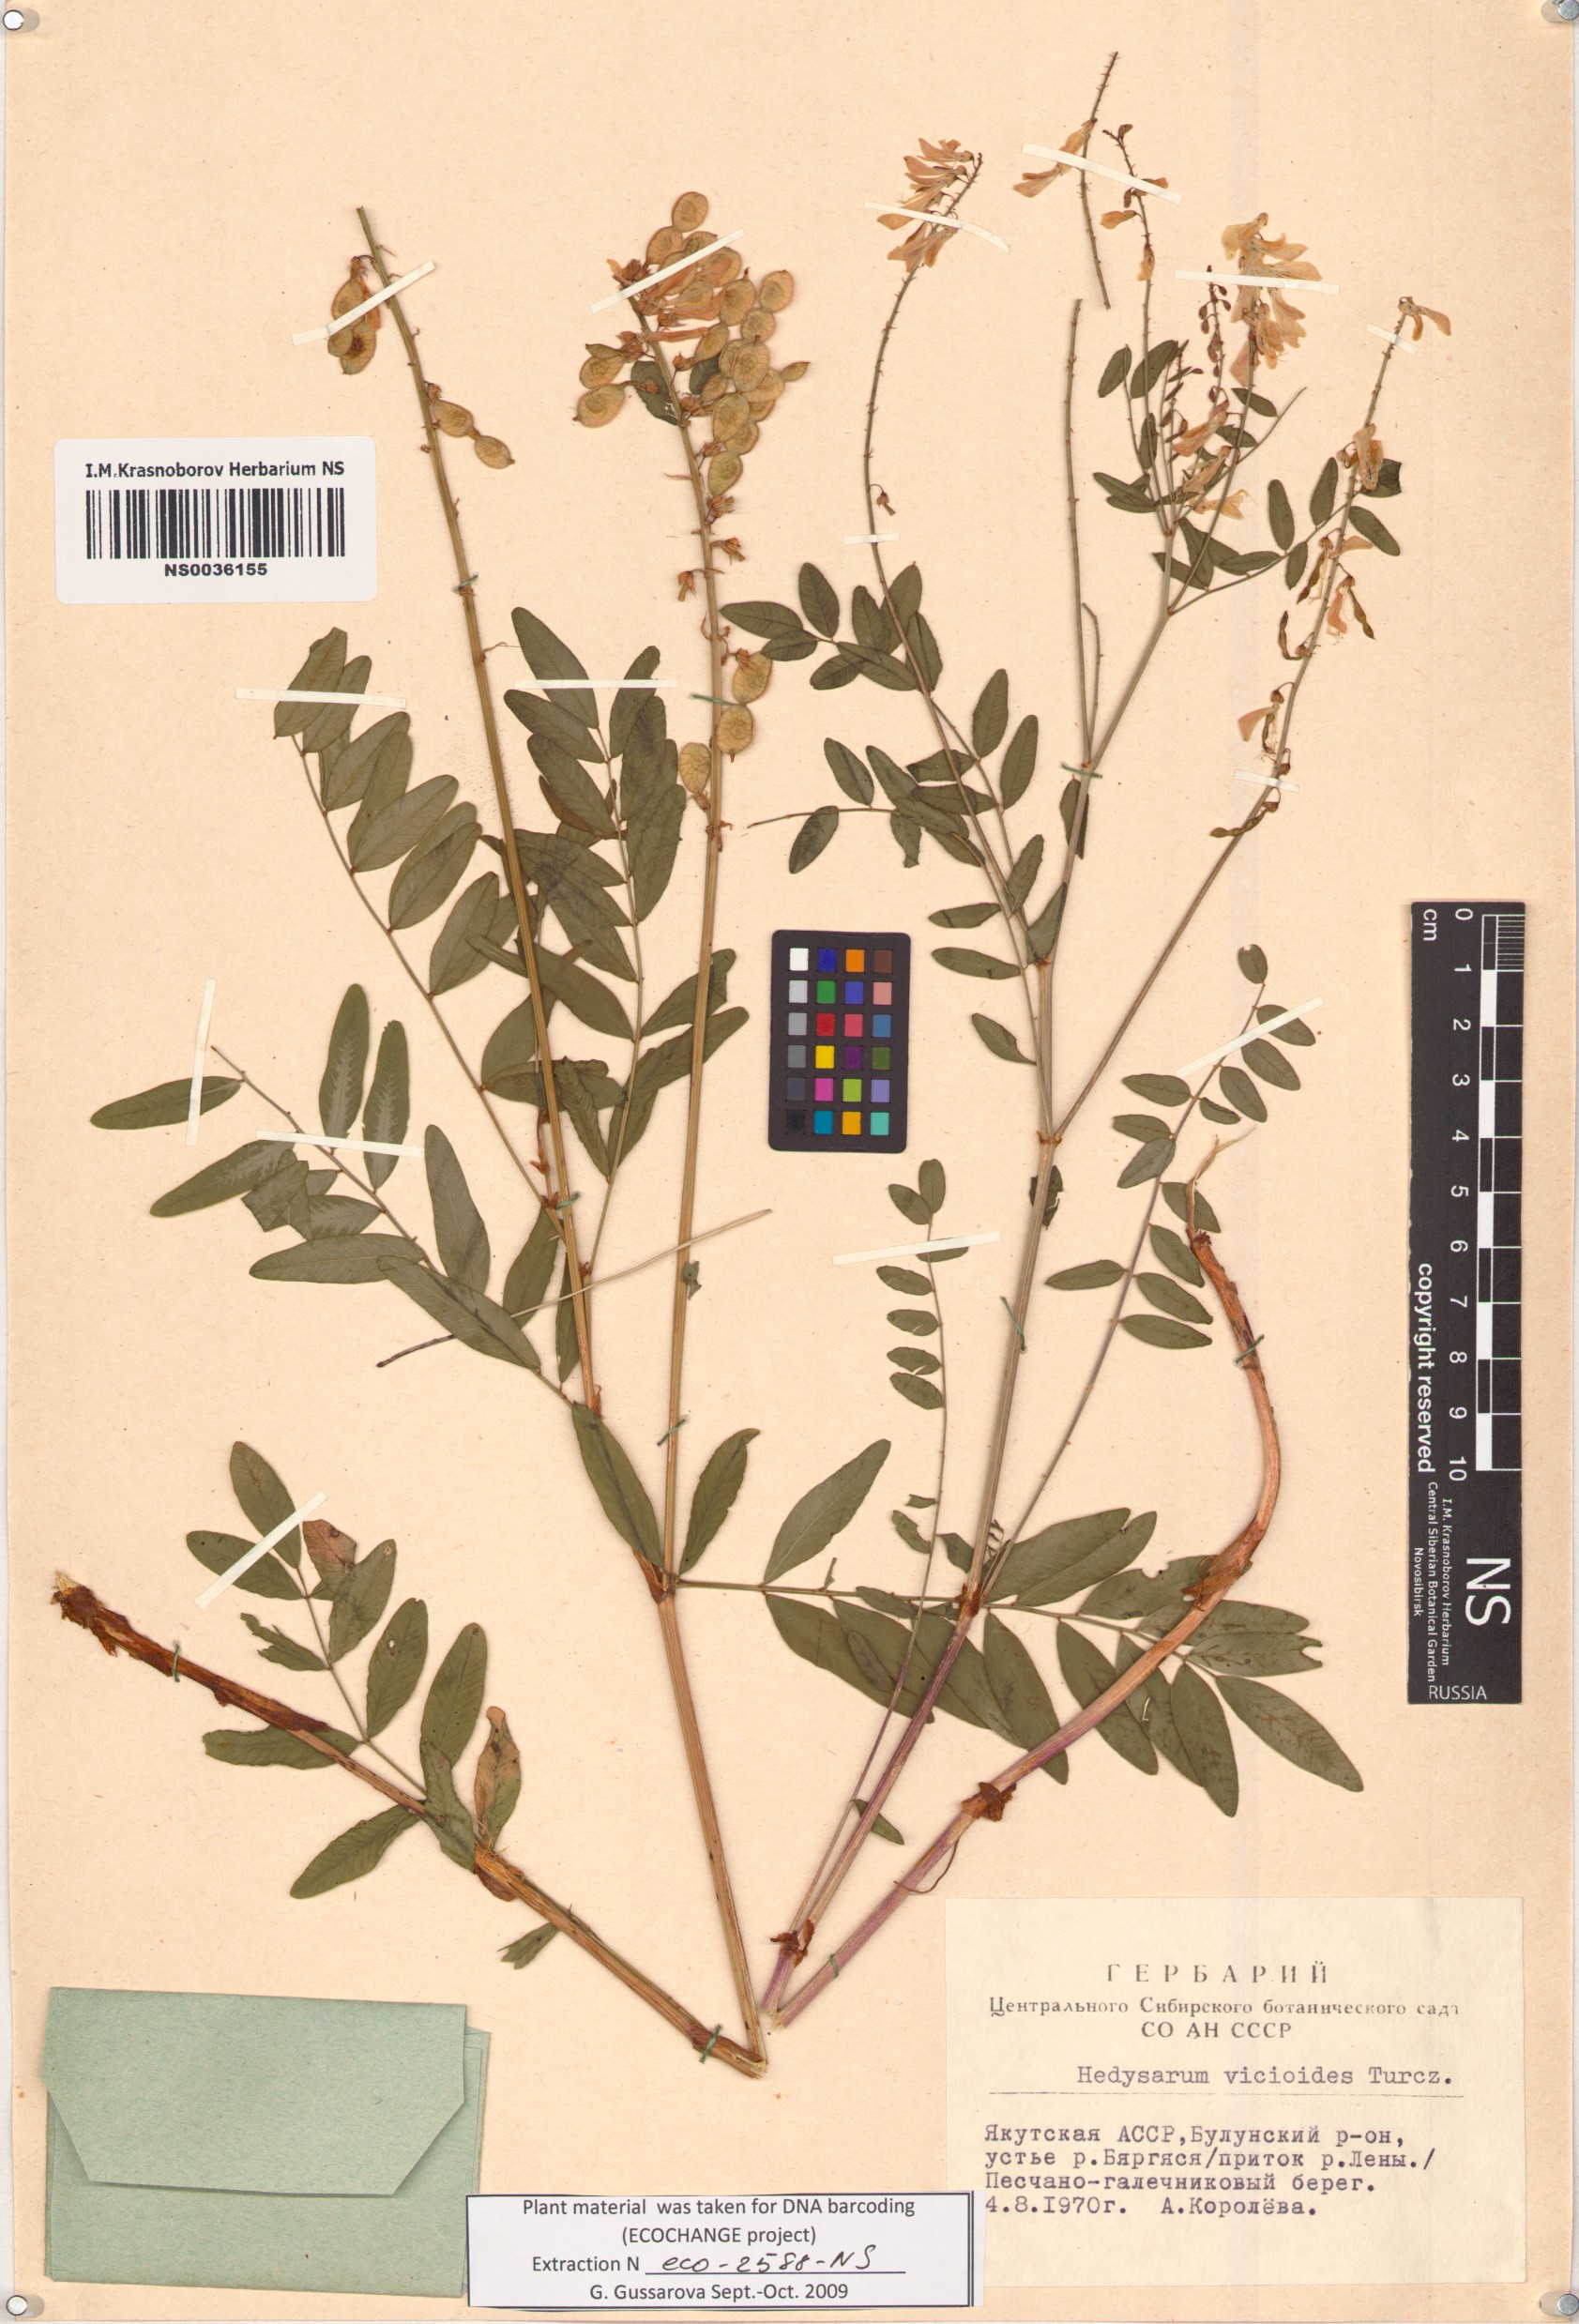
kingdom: Plantae
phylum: Tracheophyta
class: Magnoliopsida
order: Fabales
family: Fabaceae
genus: Hedysarum
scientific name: Hedysarum vicioides
